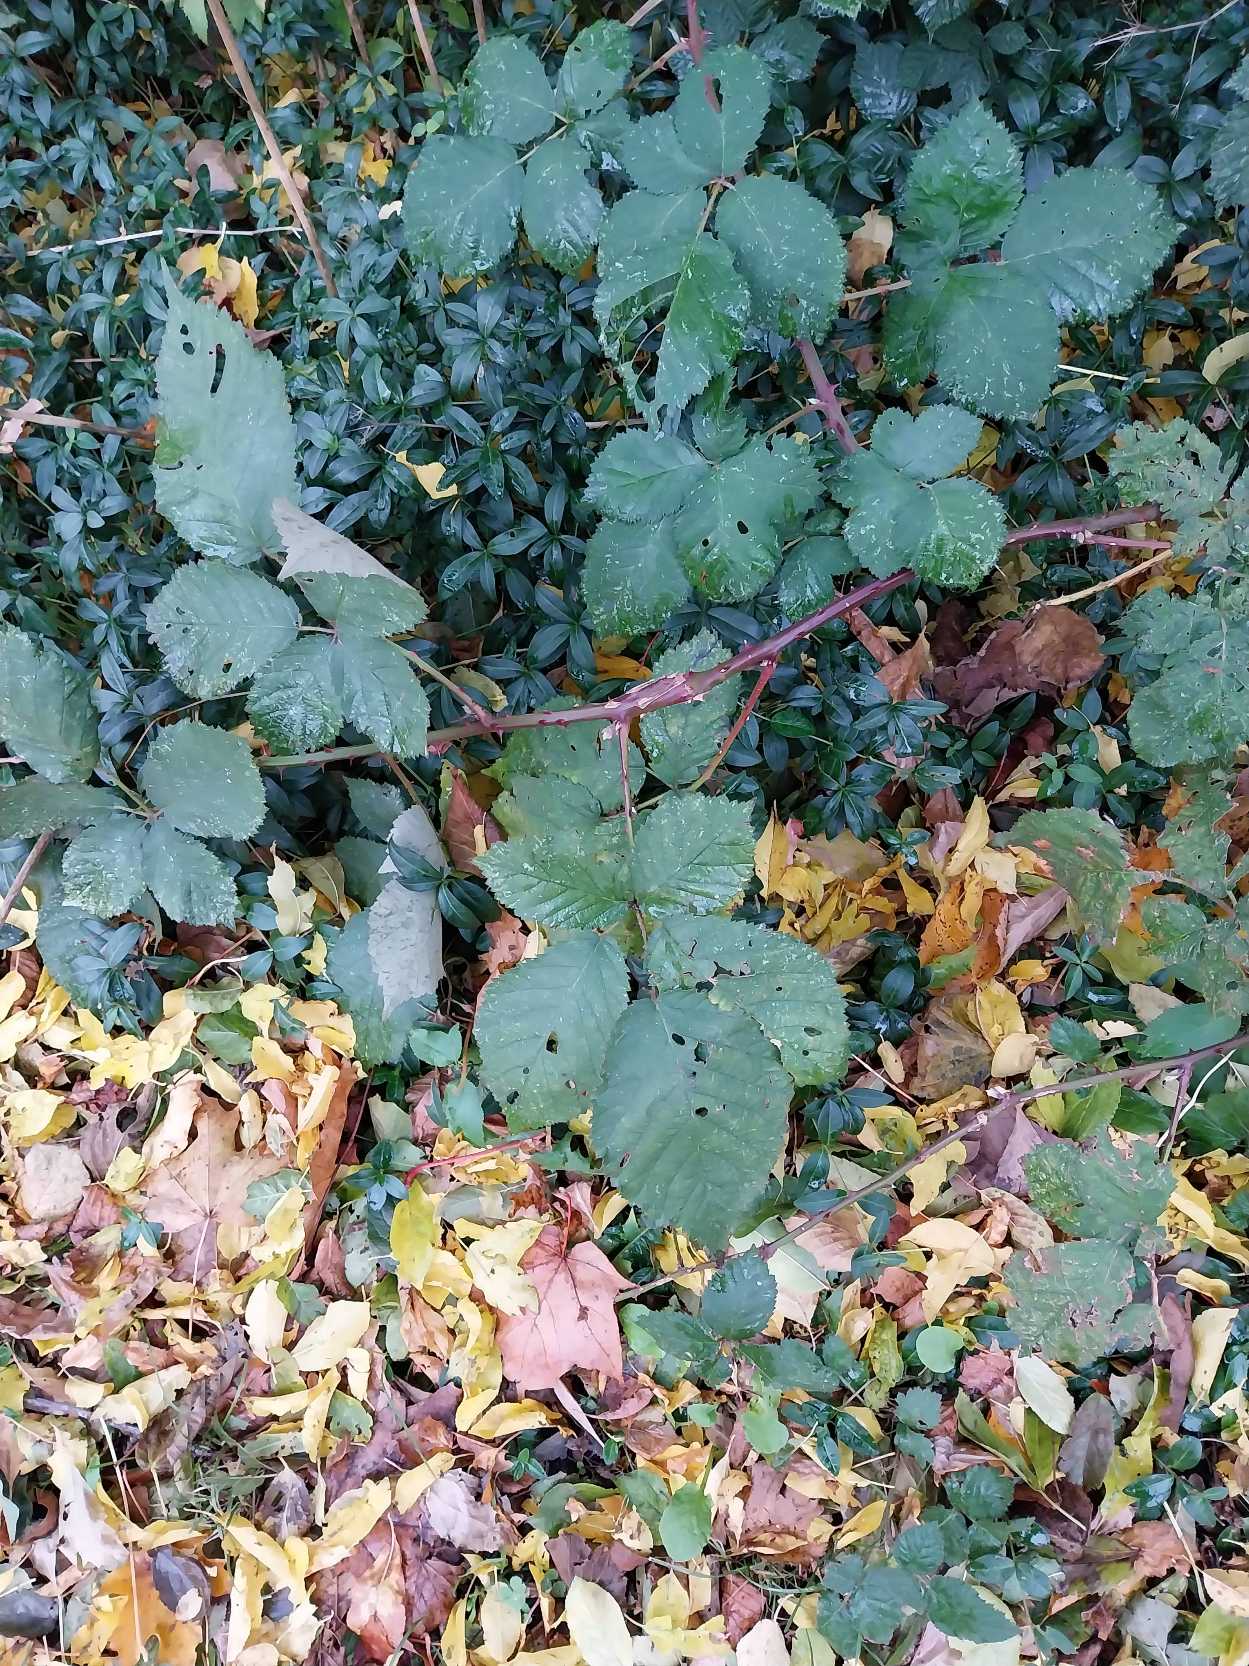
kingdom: Plantae
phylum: Tracheophyta
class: Magnoliopsida
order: Rosales
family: Rosaceae
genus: Rubus
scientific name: Rubus armeniacus
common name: Armensk brombær
